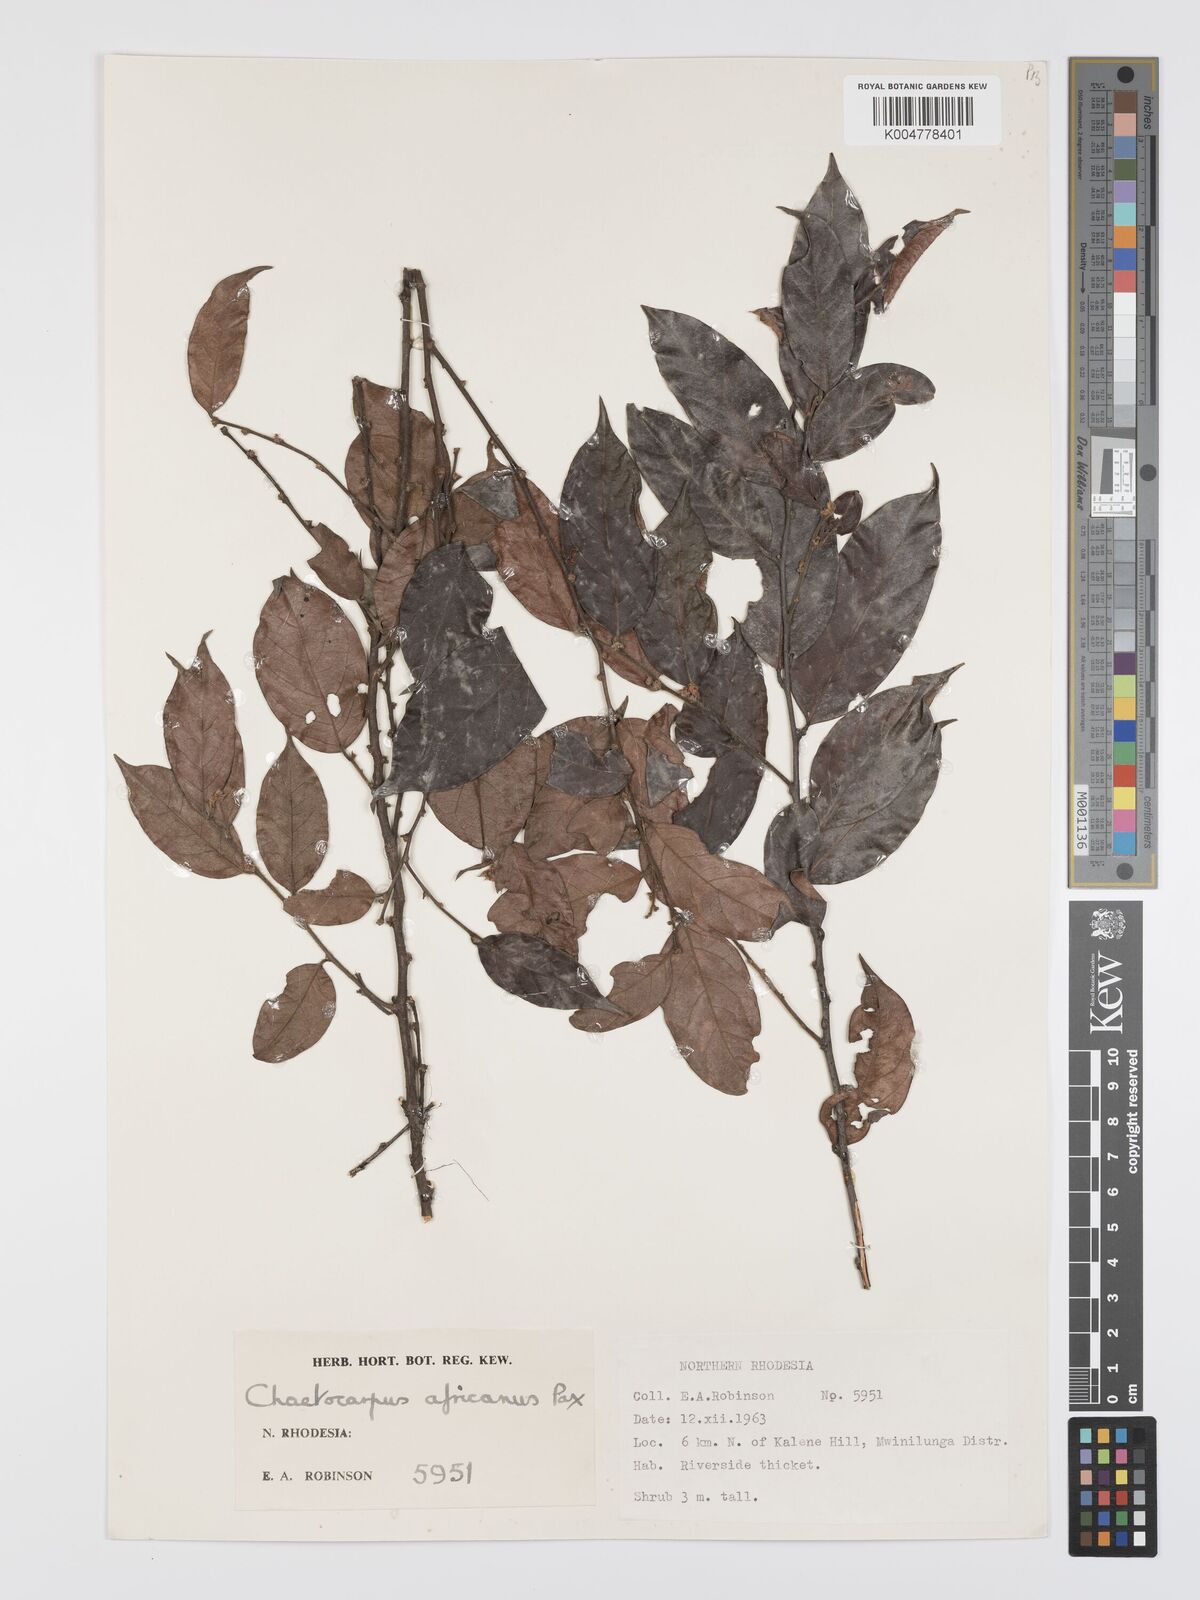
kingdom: Plantae
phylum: Tracheophyta
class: Magnoliopsida
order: Malpighiales
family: Peraceae
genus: Chaetocarpus
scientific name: Chaetocarpus africanus
